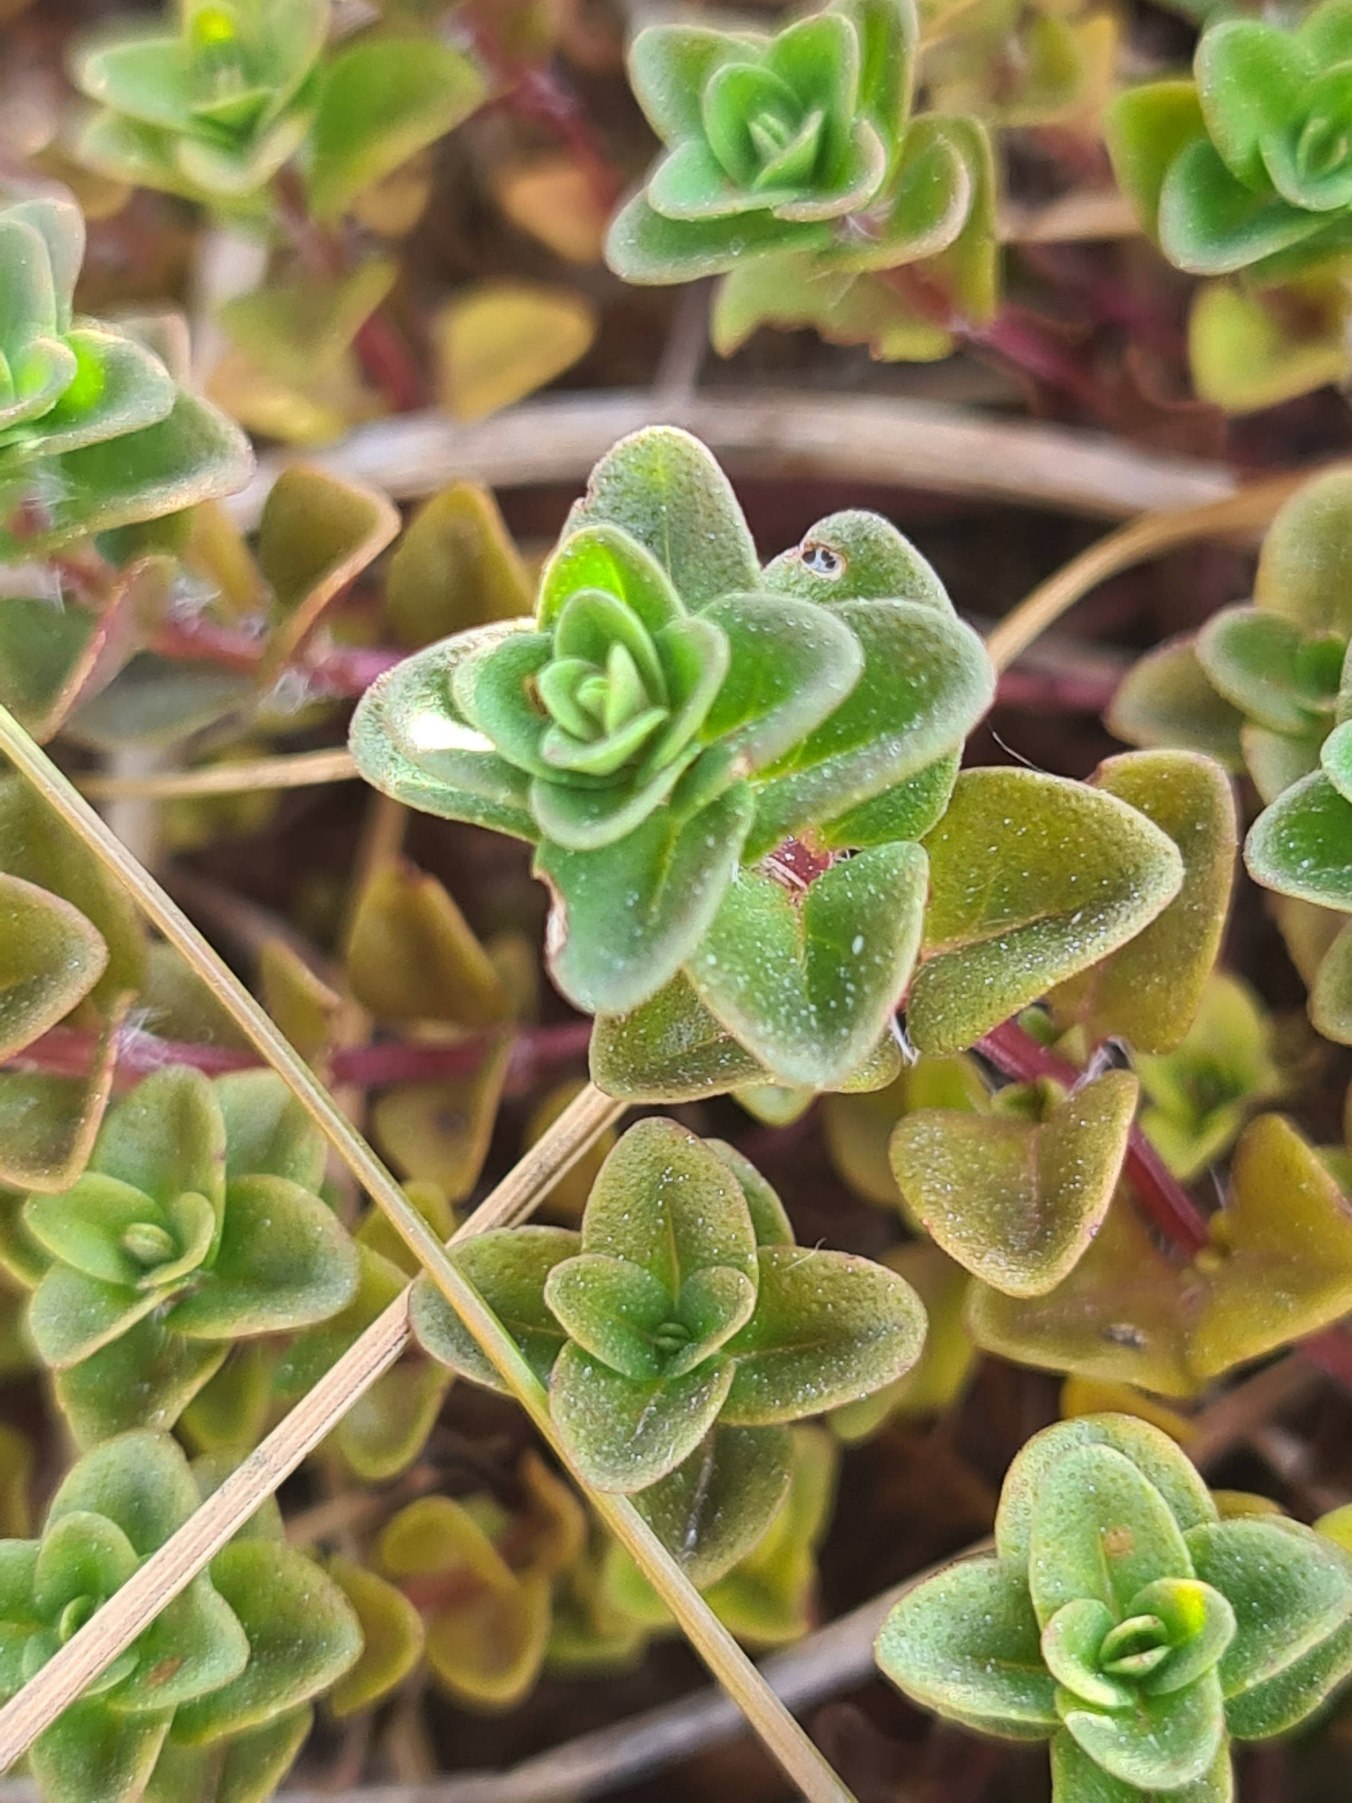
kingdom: Plantae
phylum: Tracheophyta
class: Magnoliopsida
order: Lamiales
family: Lamiaceae
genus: Thymus
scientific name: Thymus pulegioides
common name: Bredbladet timian
